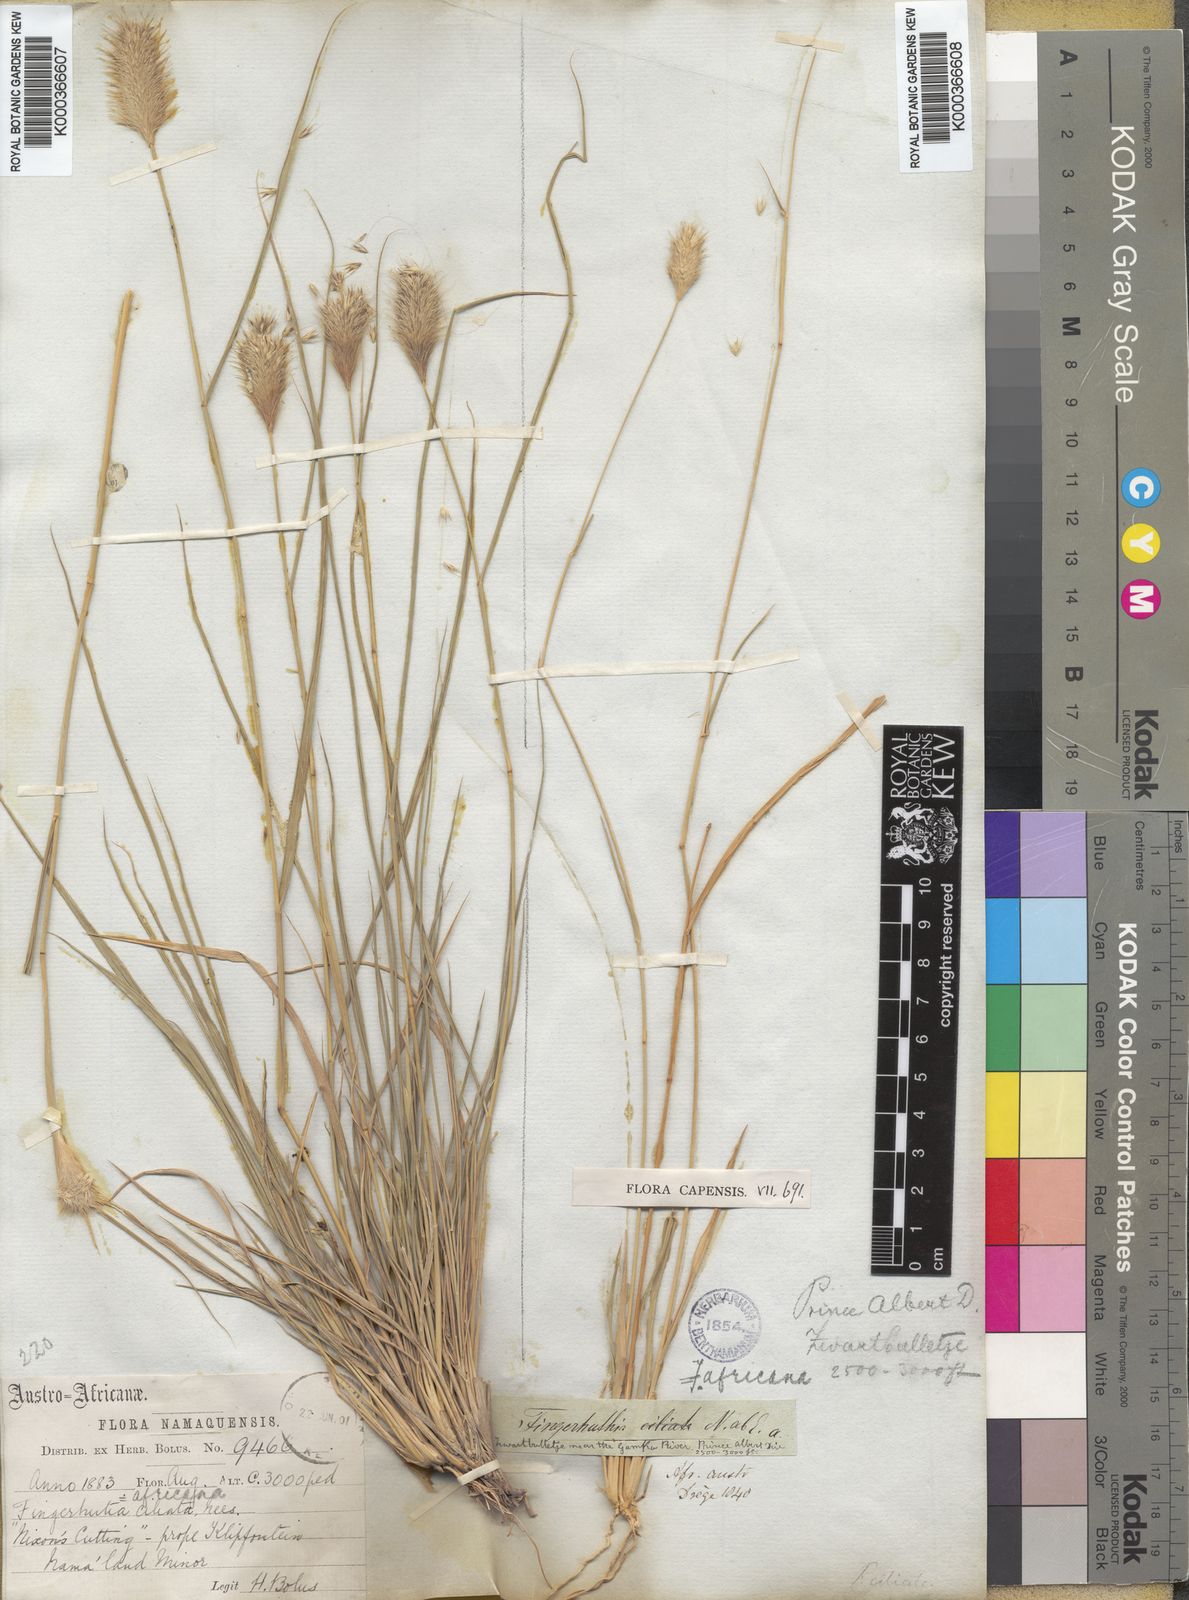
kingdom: Plantae
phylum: Tracheophyta
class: Liliopsida
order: Poales
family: Poaceae
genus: Fingerhuthia
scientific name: Fingerhuthia africana
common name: Zulu fescue
